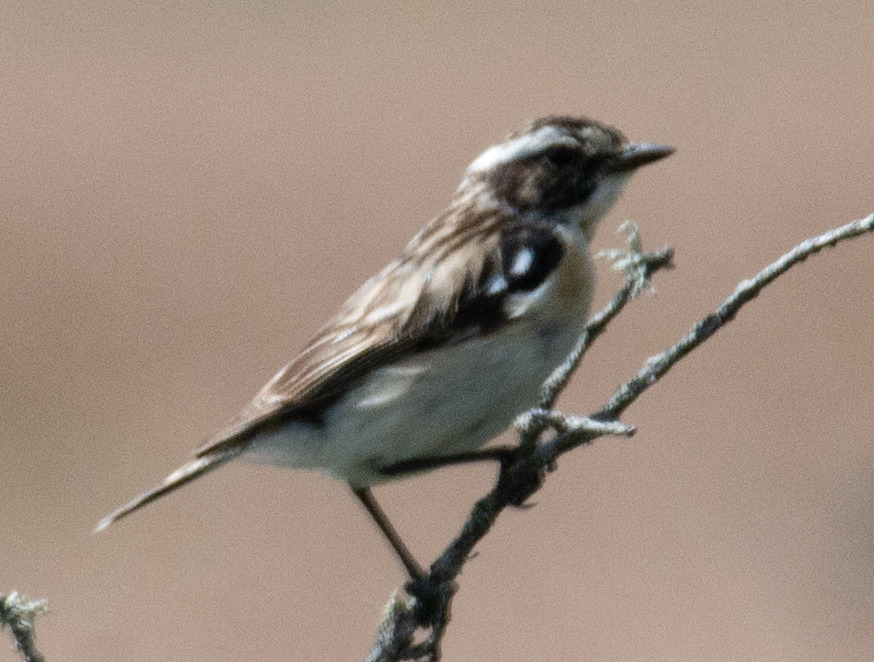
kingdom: Animalia
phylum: Chordata
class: Aves
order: Passeriformes
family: Muscicapidae
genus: Saxicola
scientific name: Saxicola rubetra
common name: Bynkefugl
